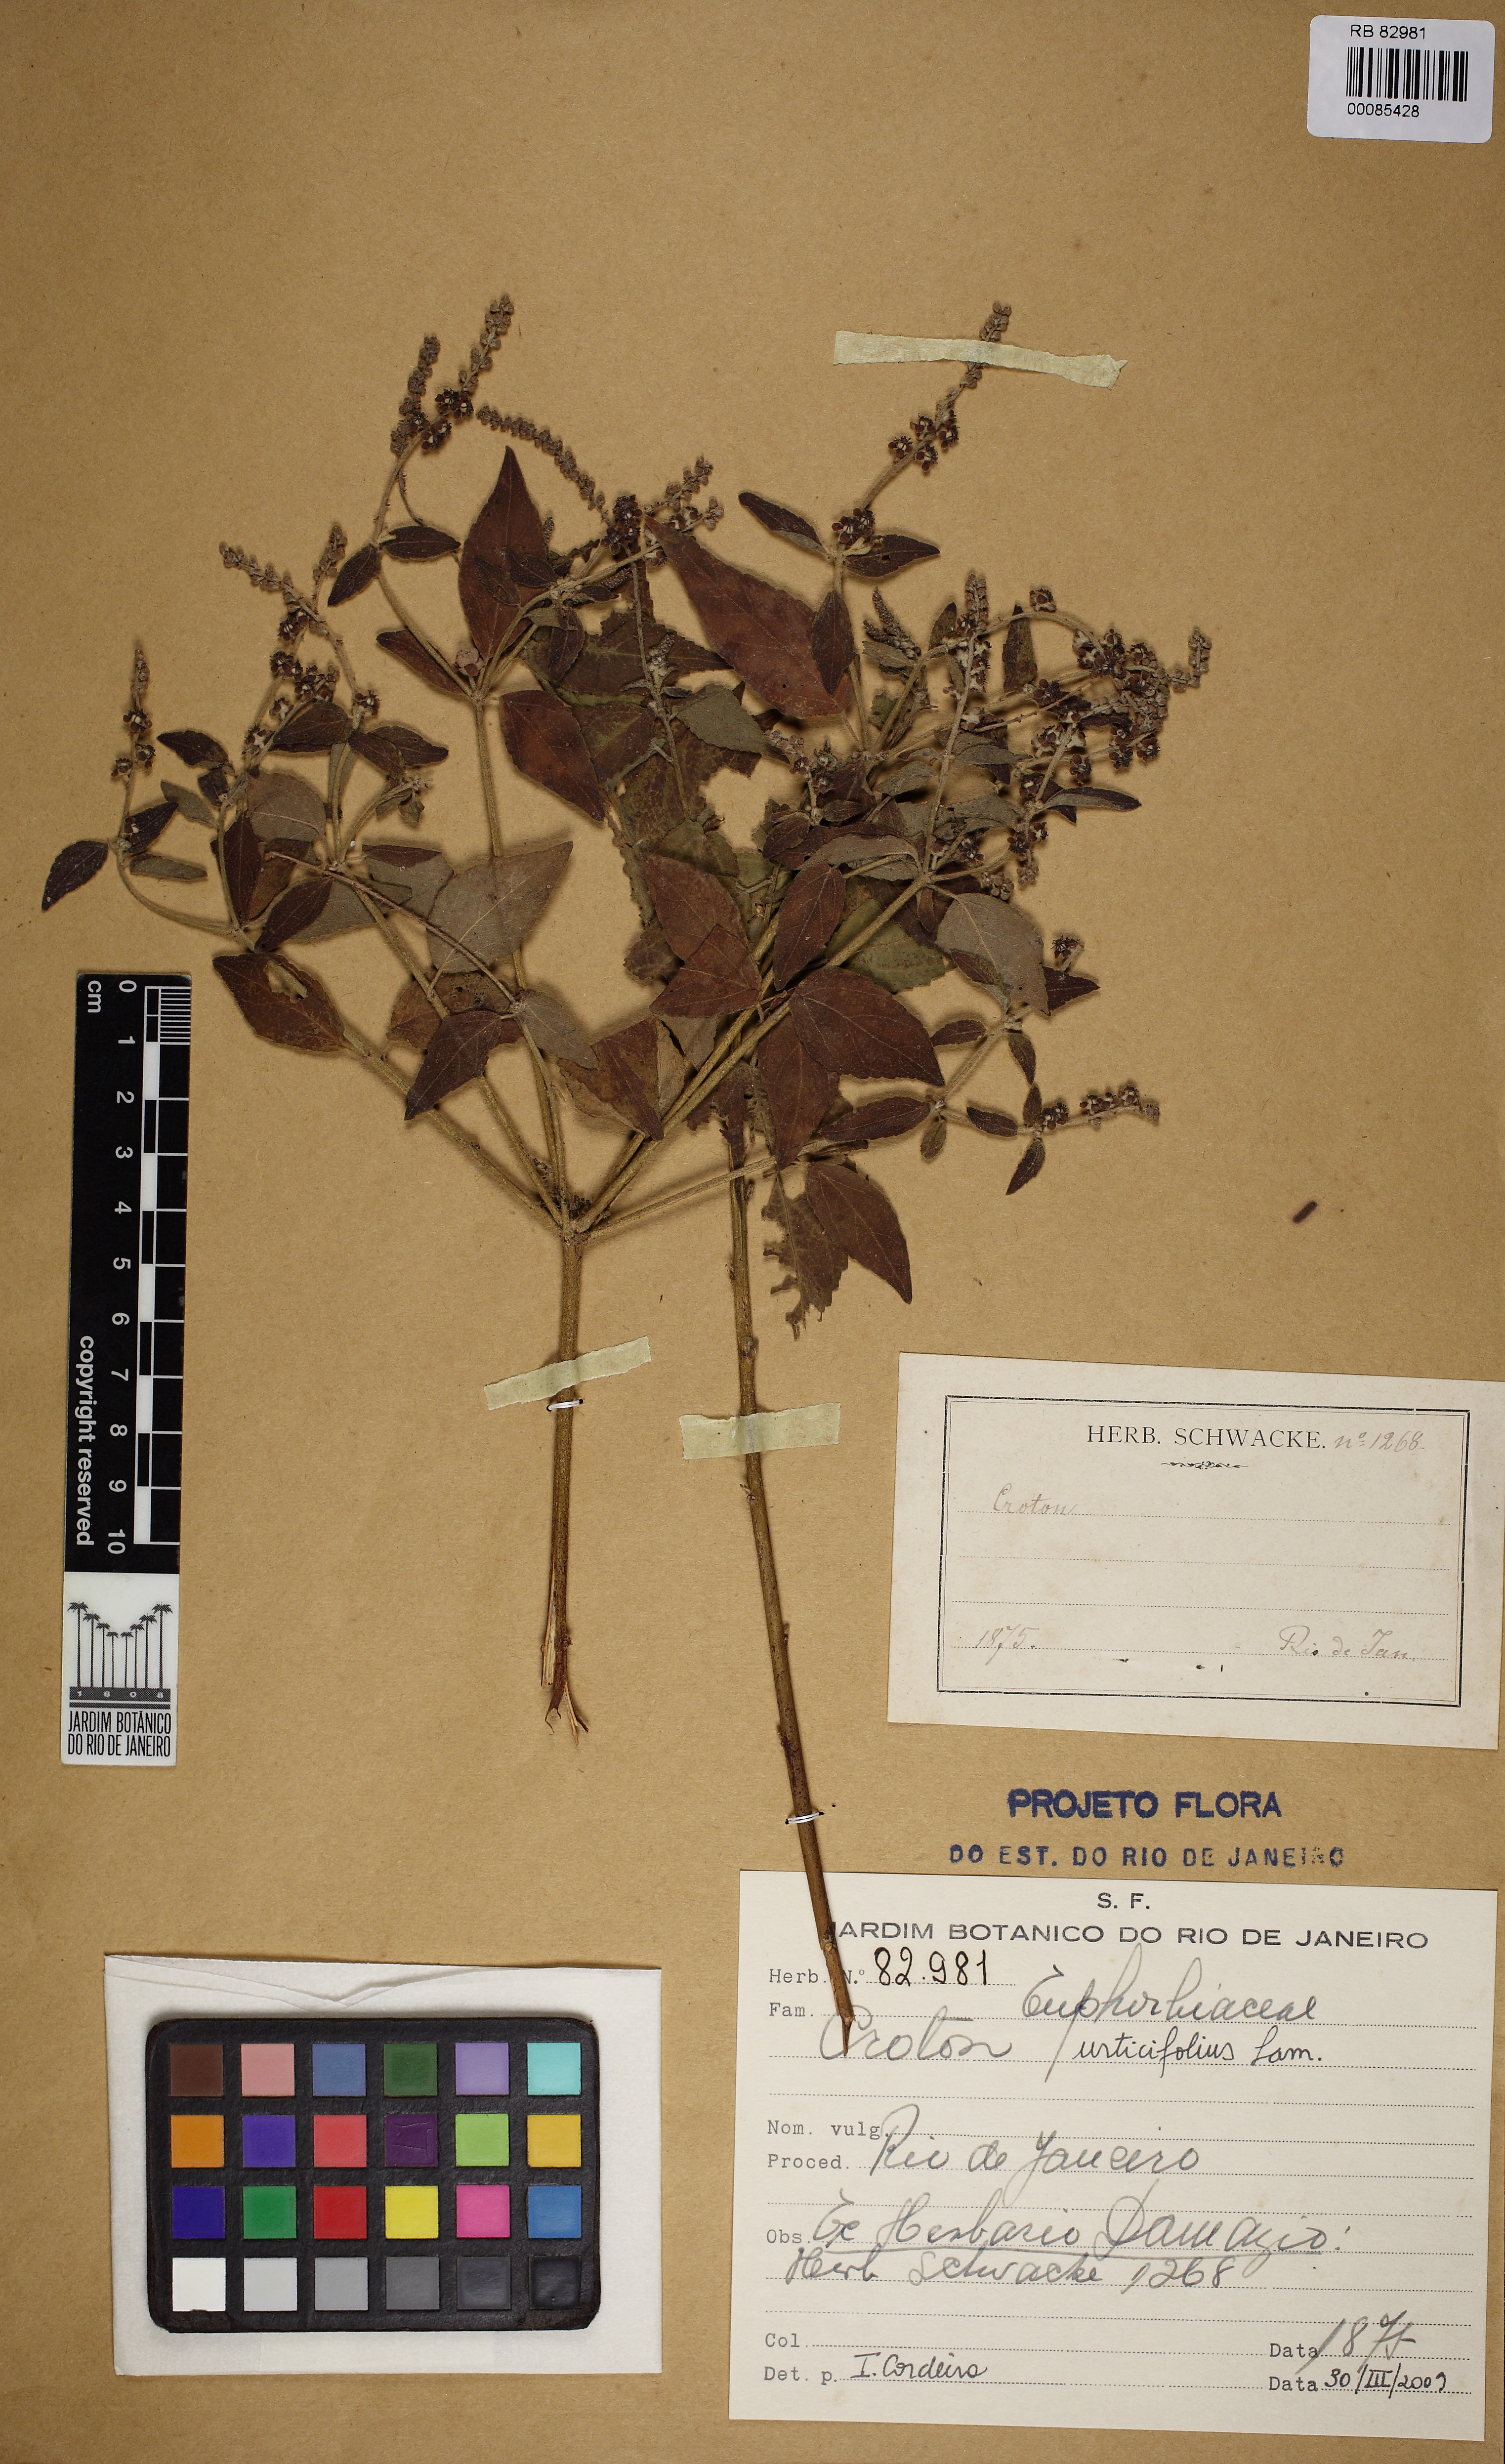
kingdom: Plantae
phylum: Tracheophyta
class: Magnoliopsida
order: Malpighiales
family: Euphorbiaceae
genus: Croton
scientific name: Croton urticifolius
